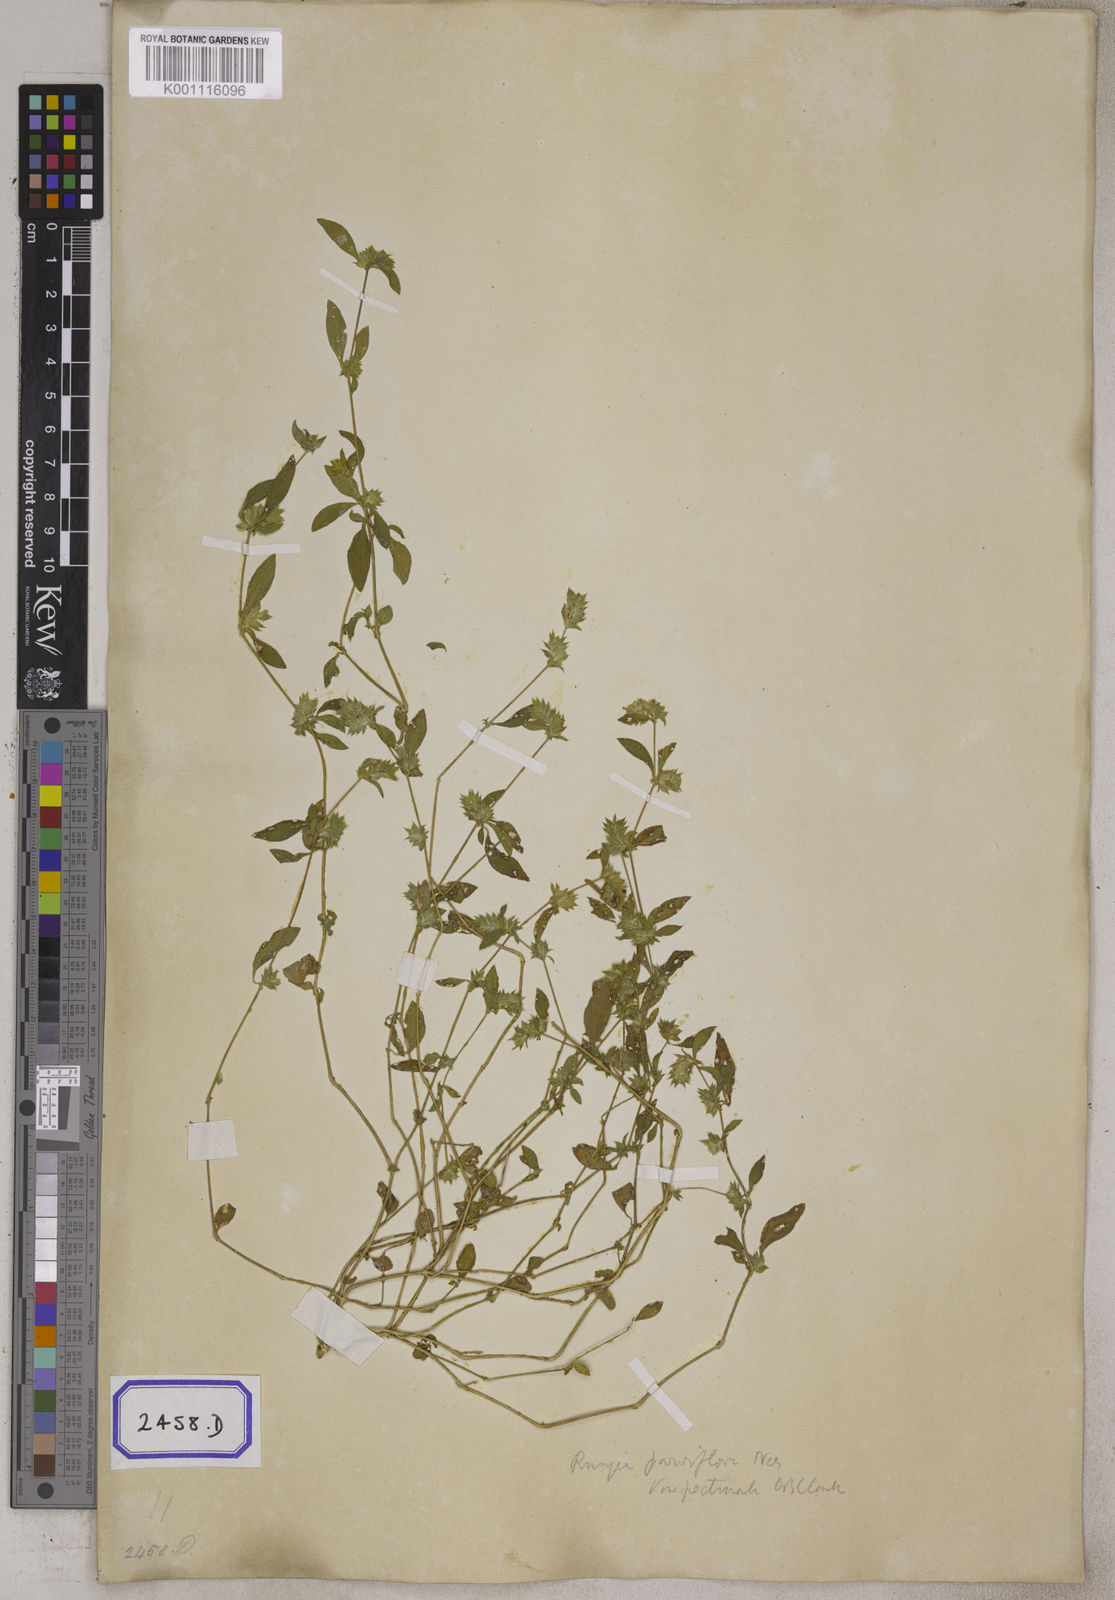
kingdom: Plantae
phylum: Tracheophyta
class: Magnoliopsida
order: Lamiales
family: Acanthaceae
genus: Rungia
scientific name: Rungia pectinata
